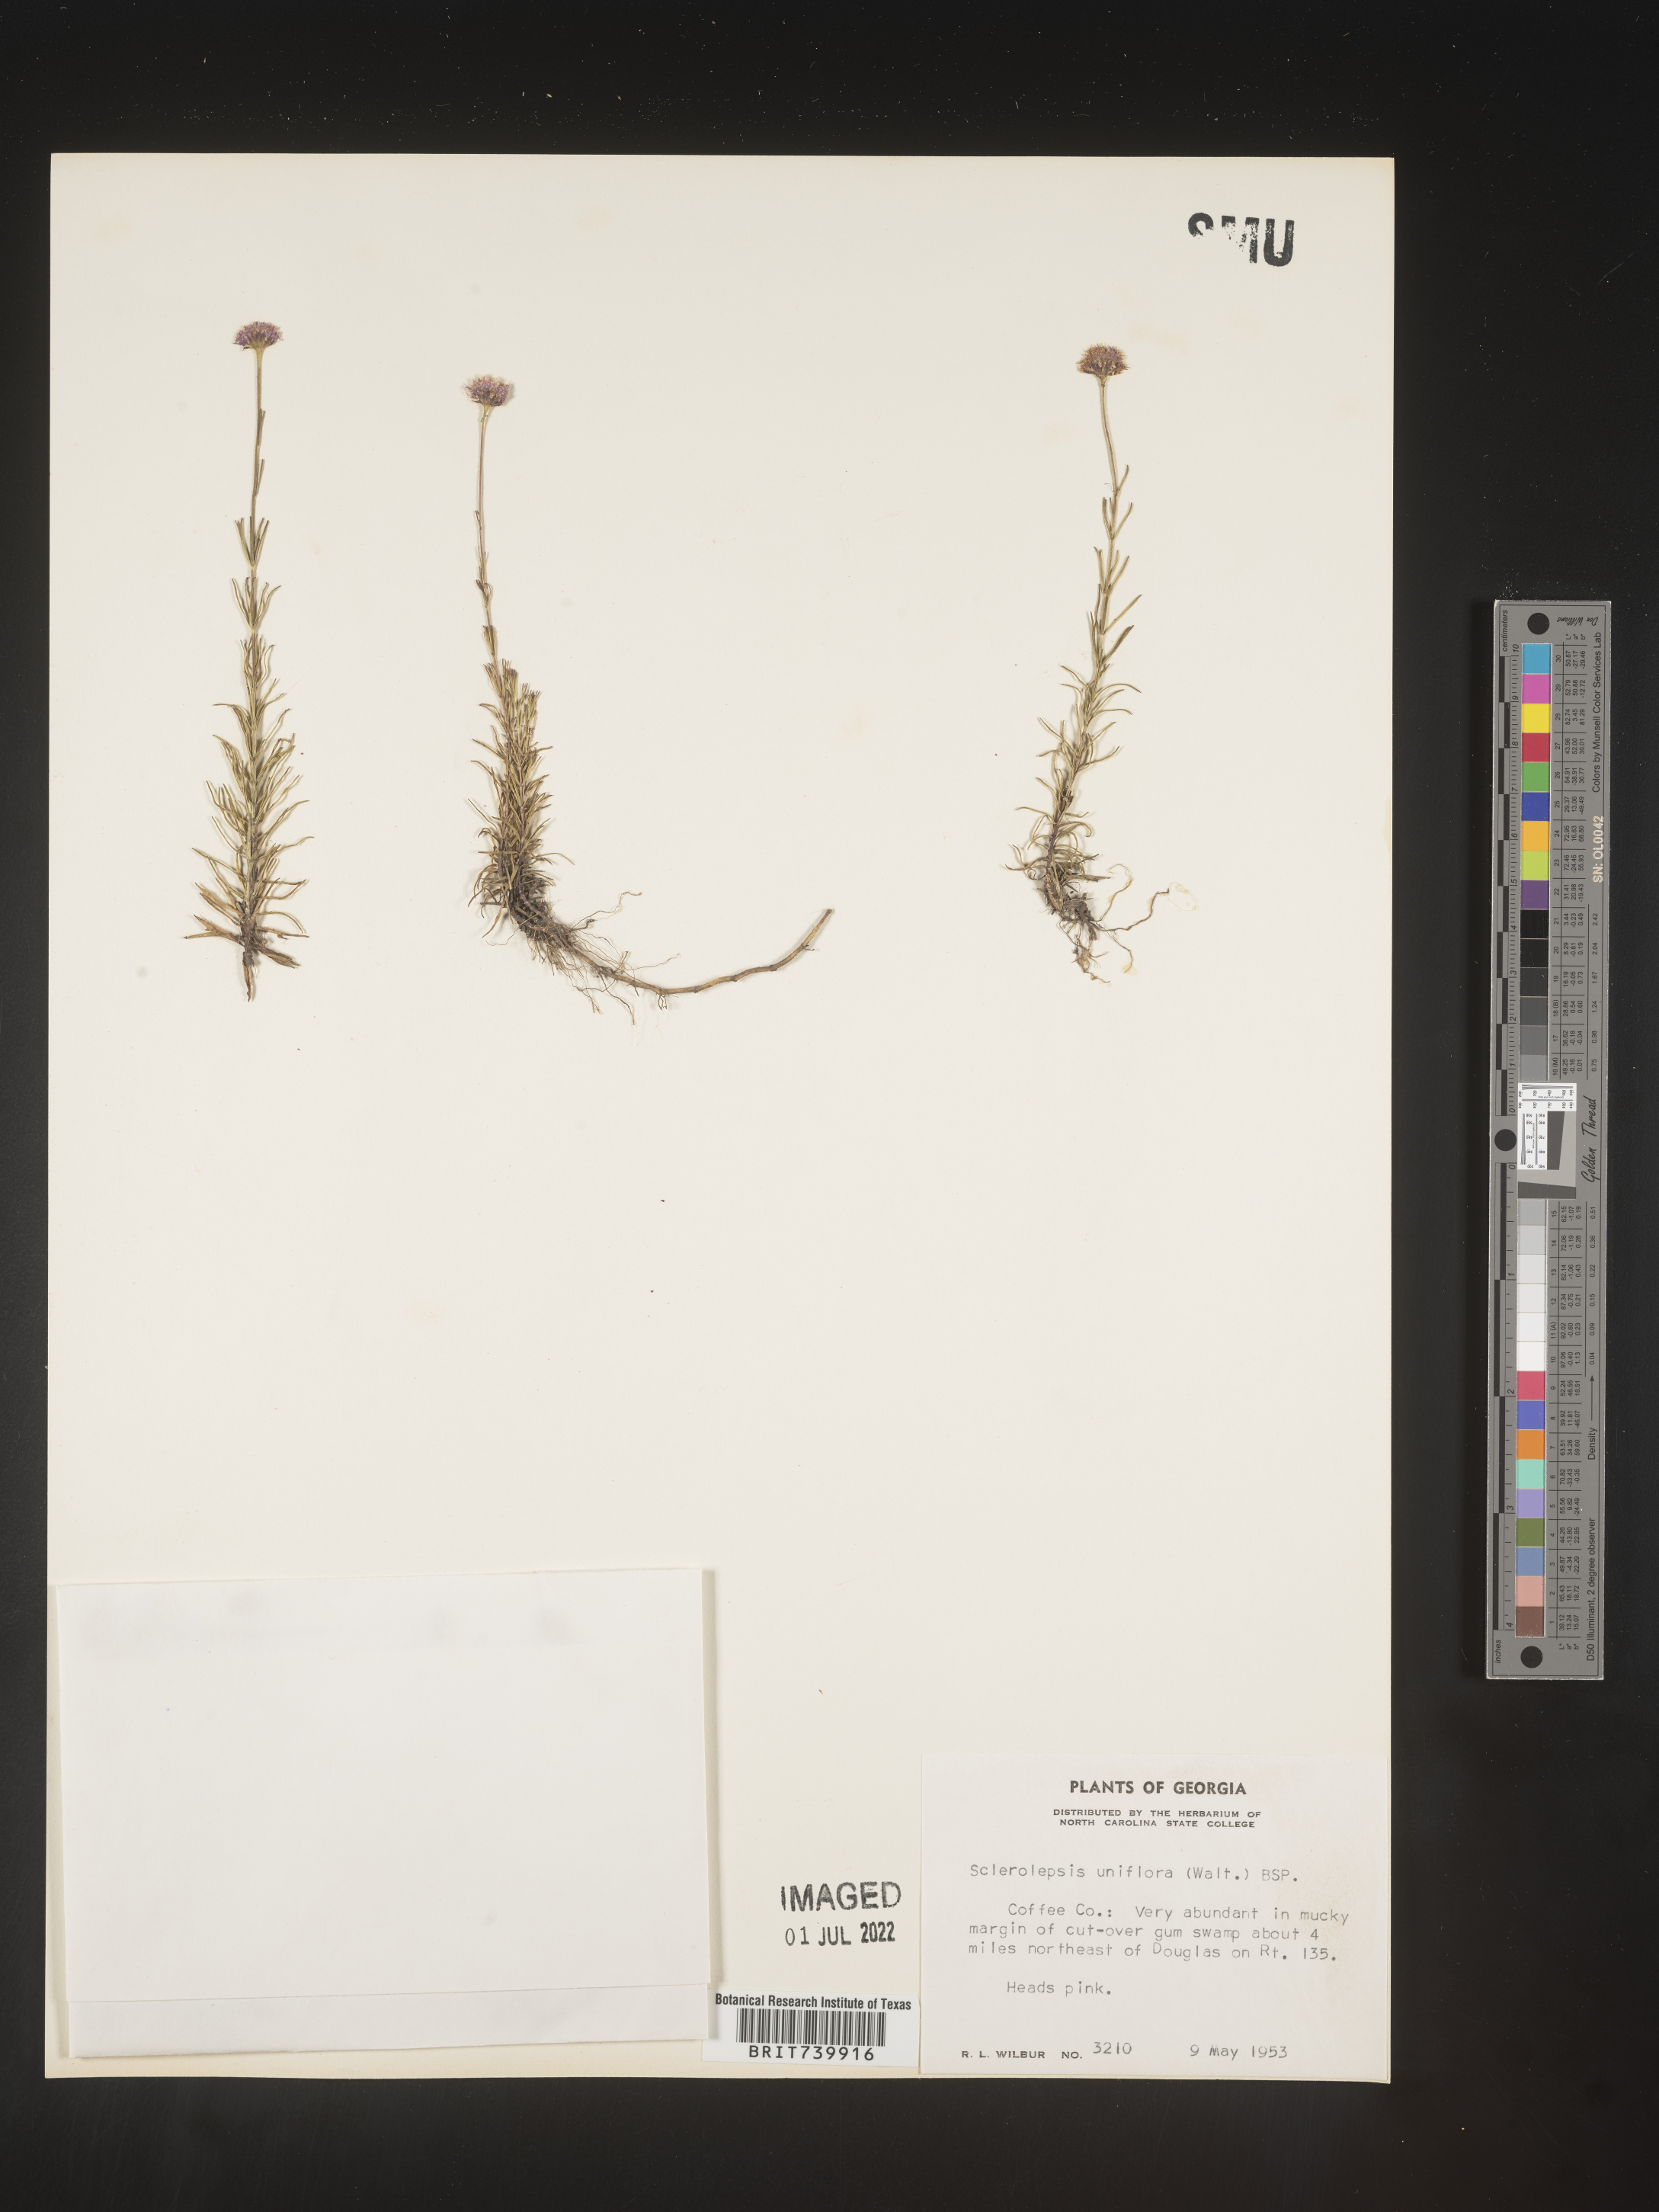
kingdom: Plantae
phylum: Tracheophyta
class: Magnoliopsida
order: Asterales
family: Asteraceae
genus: Sclerolepis
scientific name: Sclerolepis
